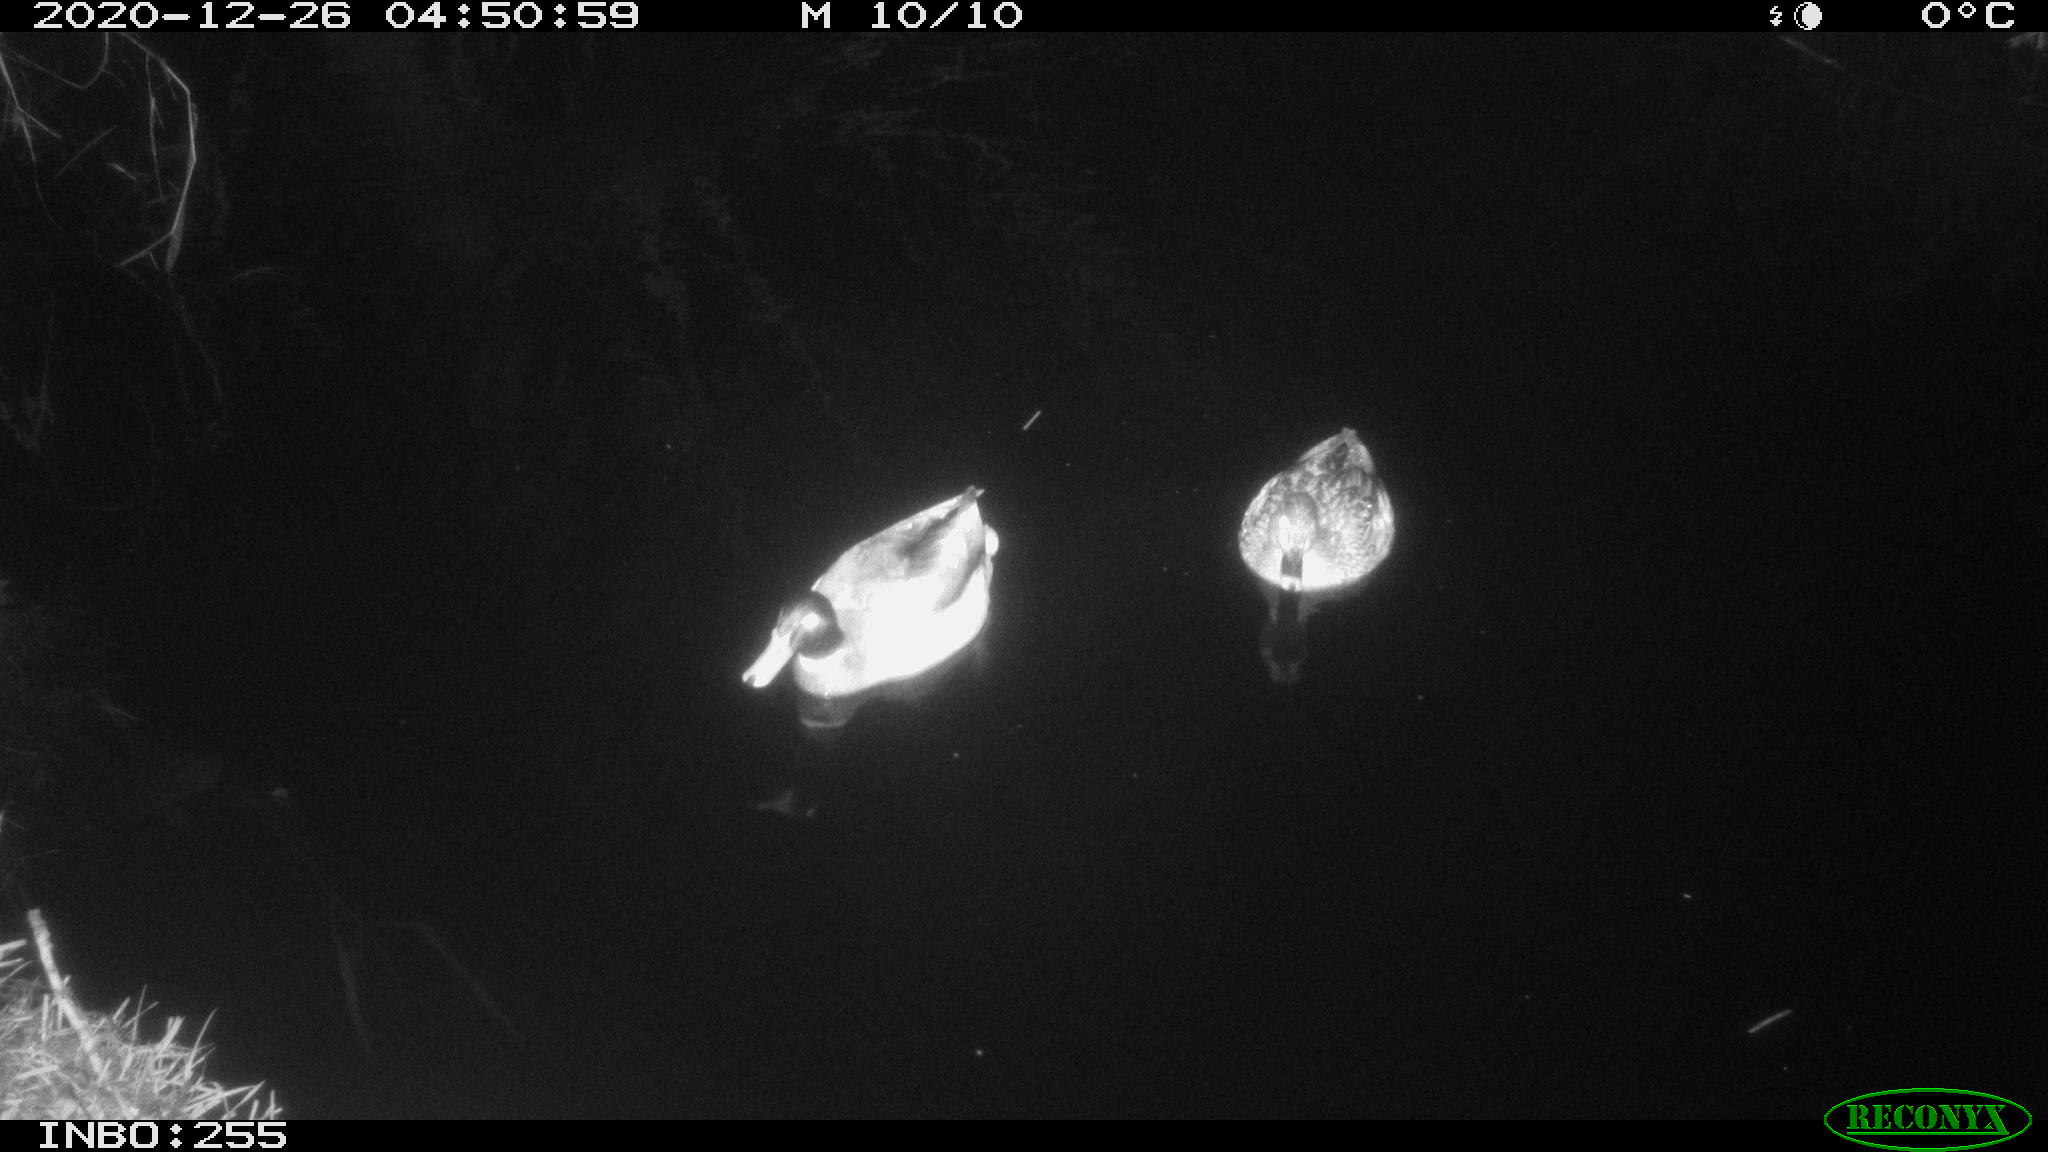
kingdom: Animalia
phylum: Chordata
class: Aves
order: Anseriformes
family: Anatidae
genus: Anas
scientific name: Anas platyrhynchos
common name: Mallard
